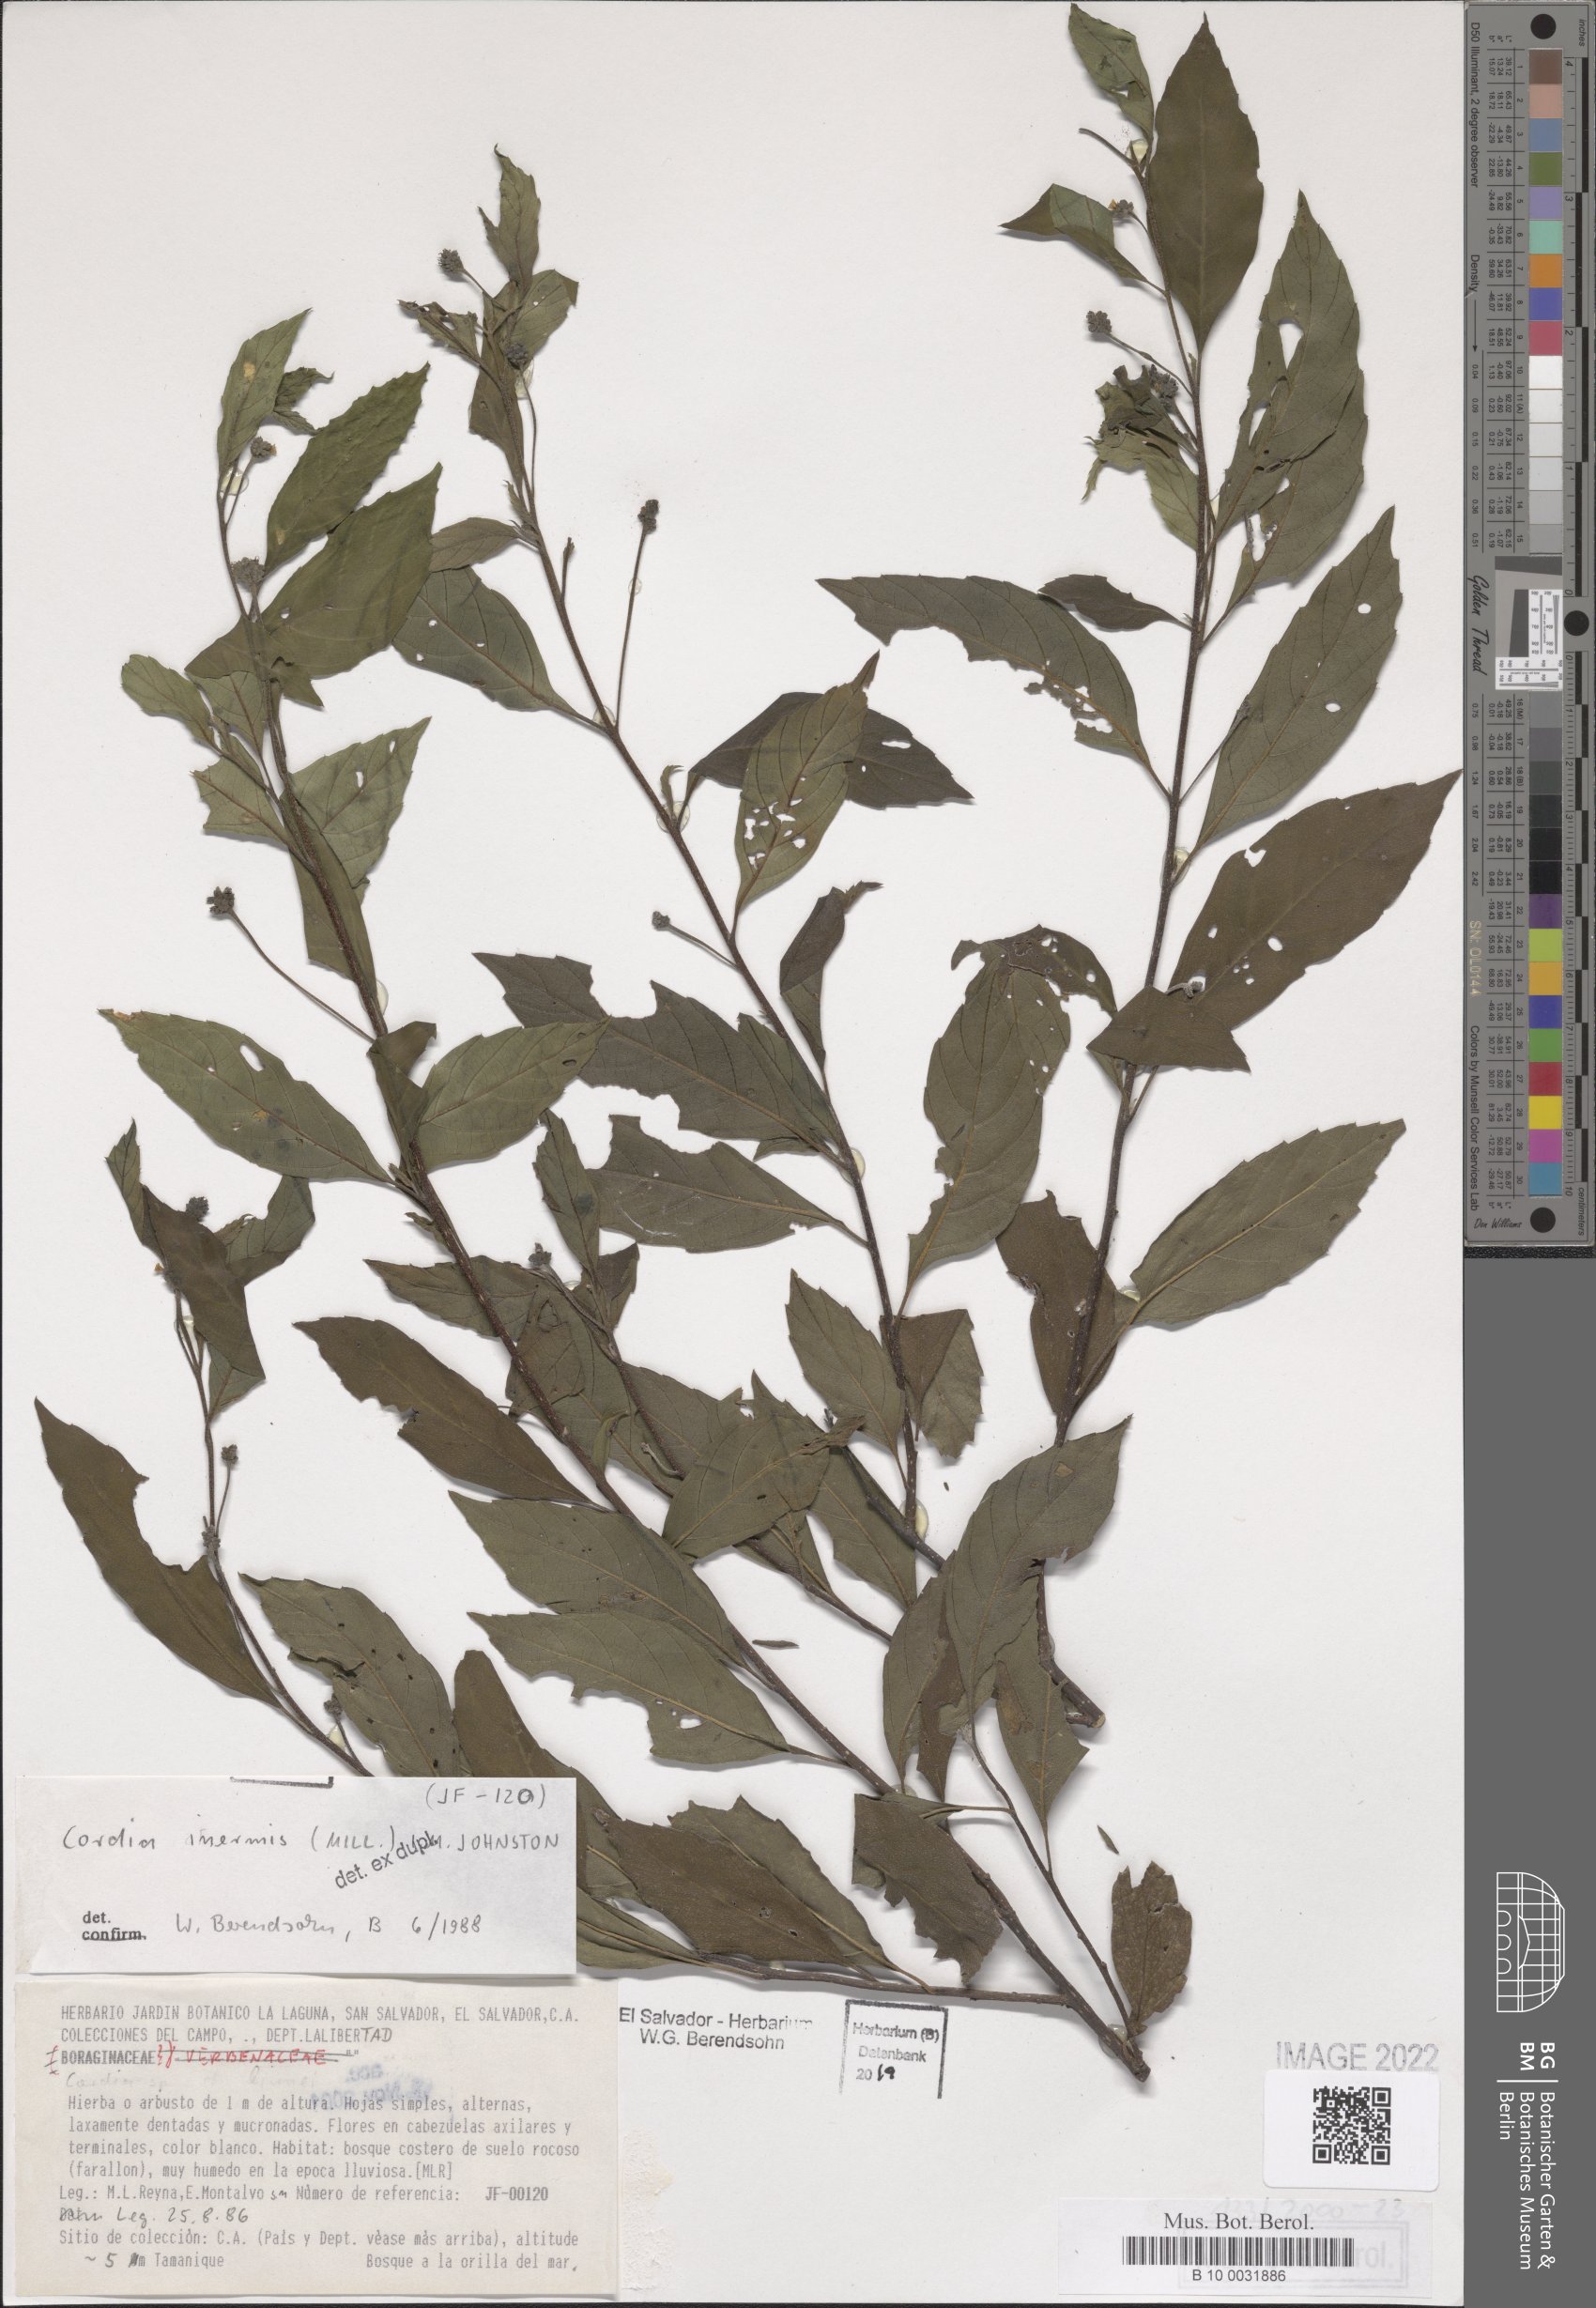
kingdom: Plantae
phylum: Tracheophyta
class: Magnoliopsida
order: Boraginales
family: Cordiaceae
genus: Varronia
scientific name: Varronia inermis
